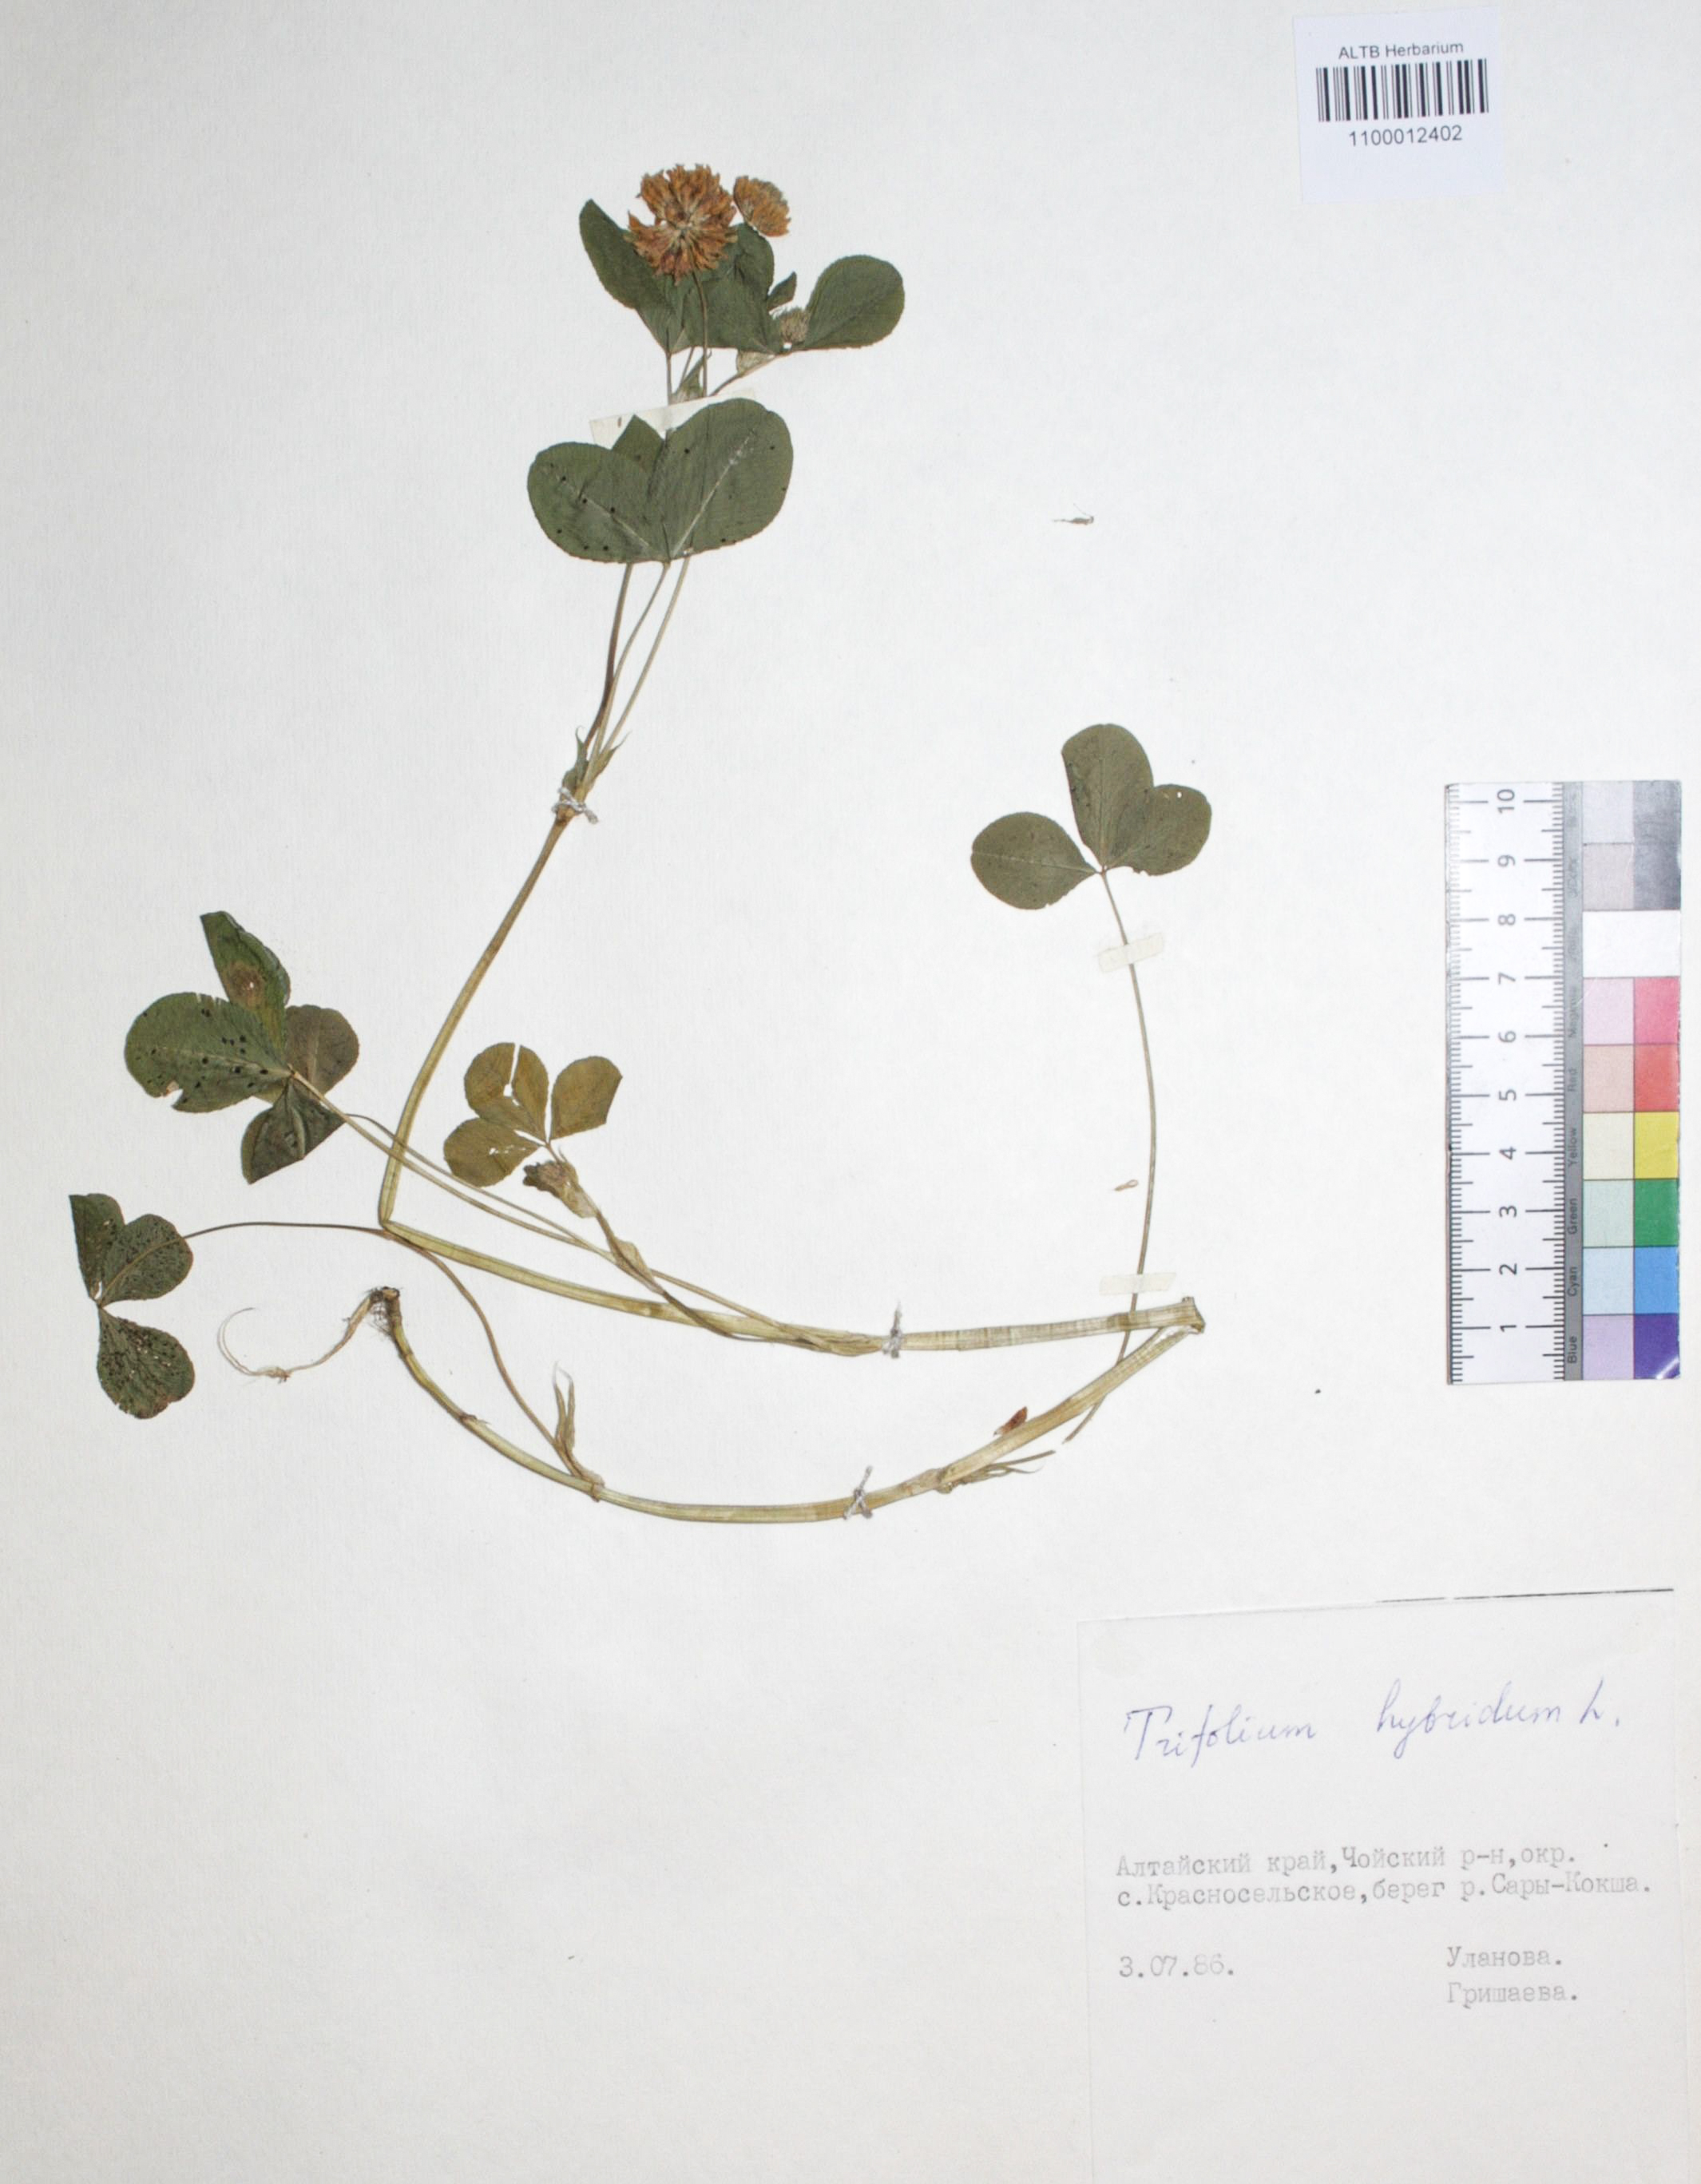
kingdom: Plantae
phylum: Tracheophyta
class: Magnoliopsida
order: Fabales
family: Fabaceae
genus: Trifolium
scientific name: Trifolium hybridum
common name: Alsike clover
